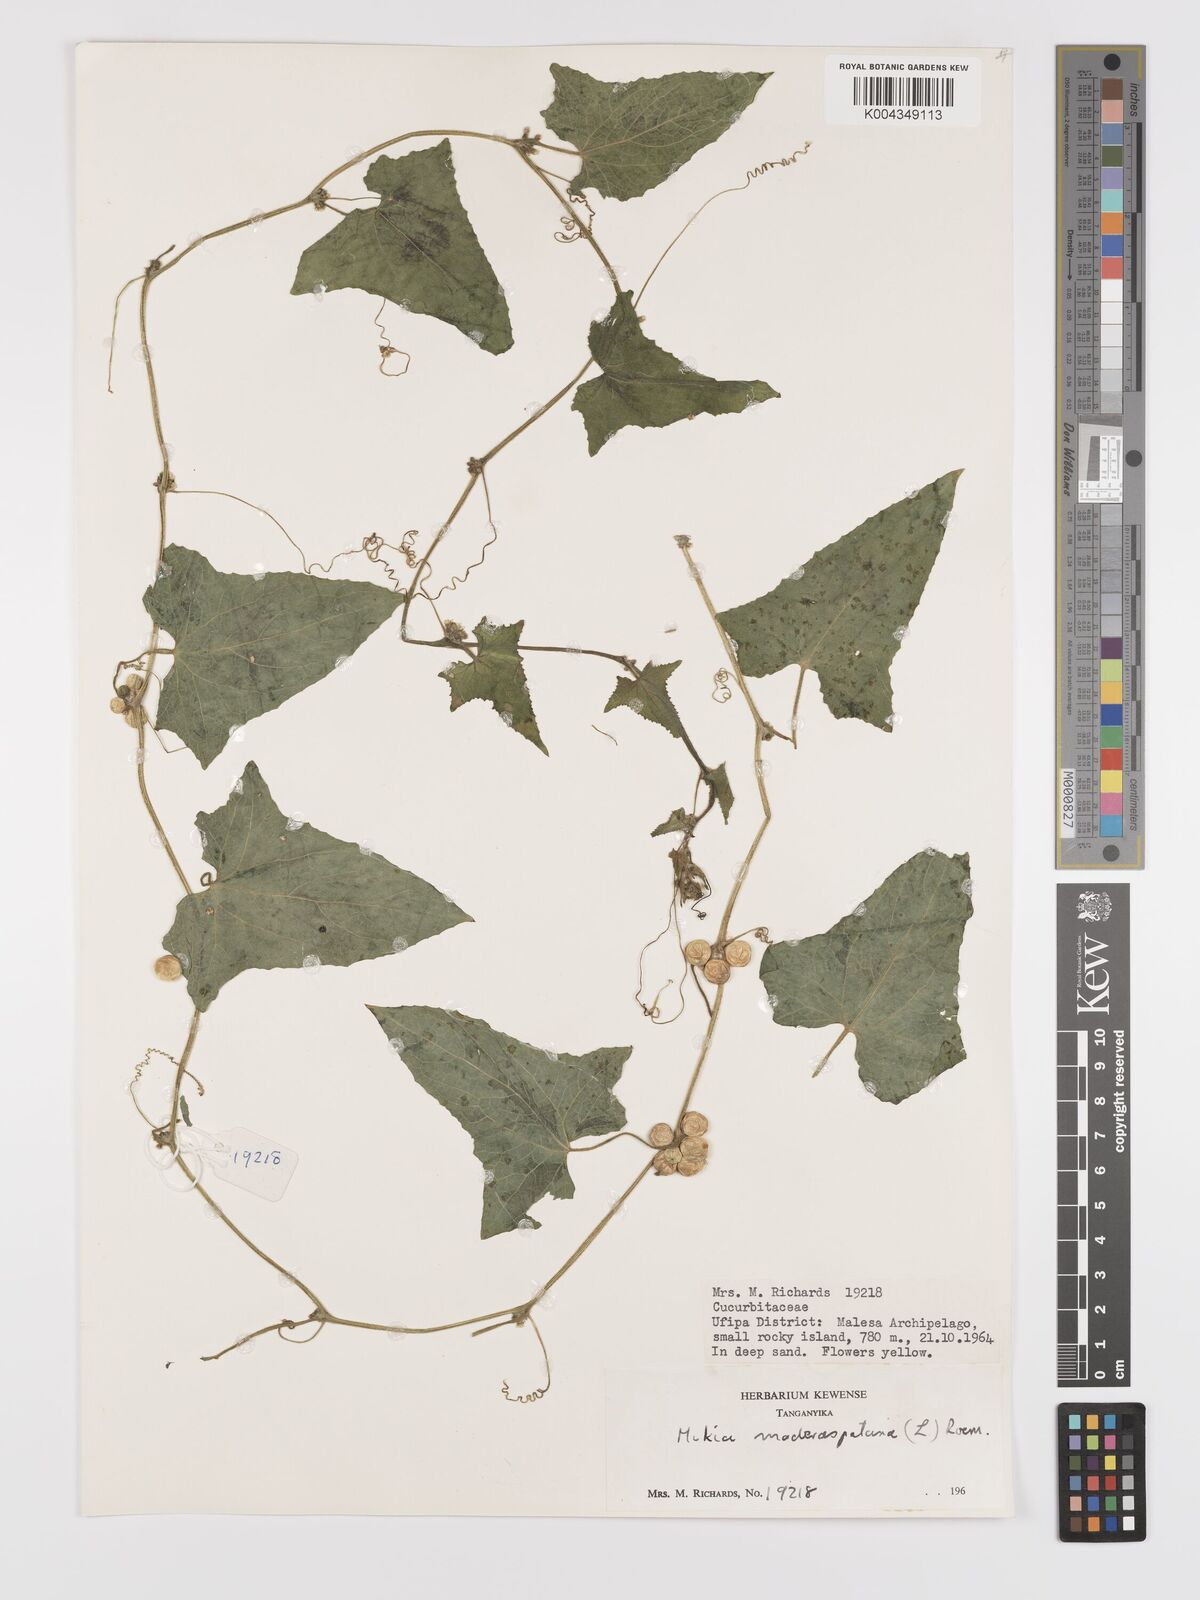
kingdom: Plantae
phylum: Tracheophyta
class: Magnoliopsida
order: Cucurbitales
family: Cucurbitaceae
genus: Cucumis
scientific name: Cucumis maderaspatanus
